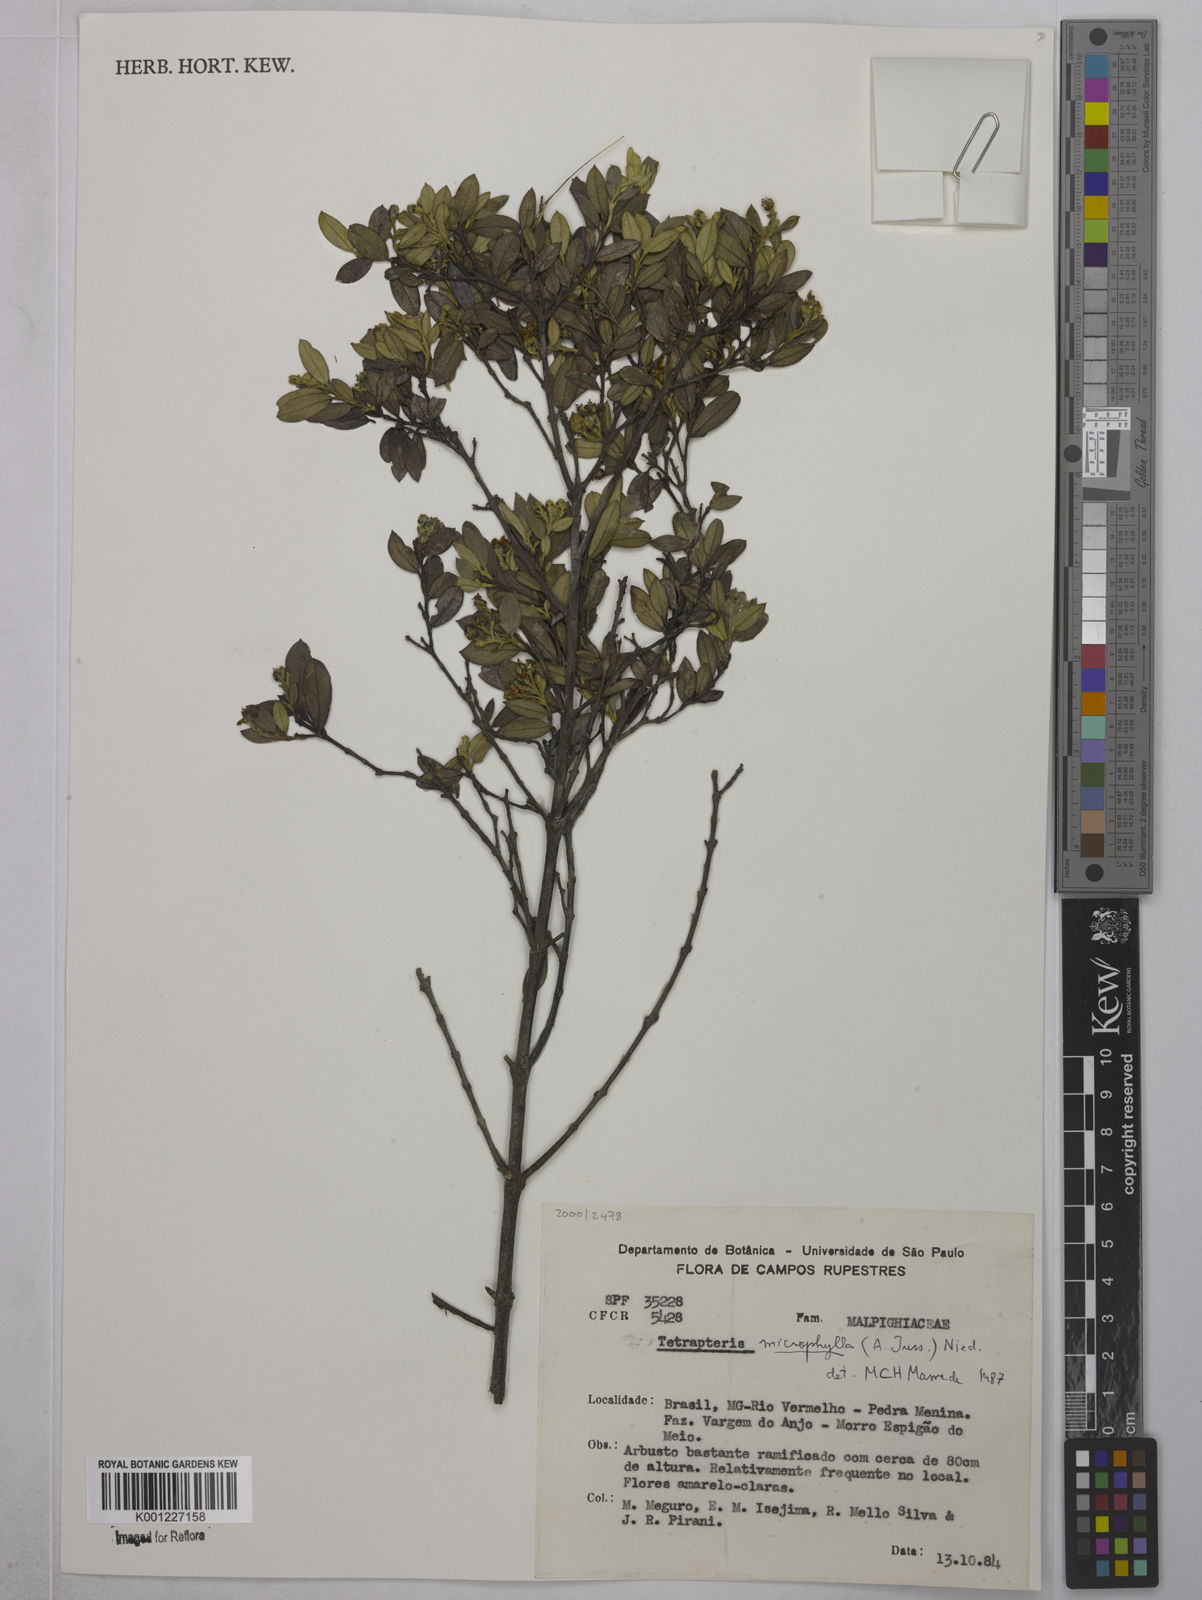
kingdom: Plantae
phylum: Tracheophyta
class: Magnoliopsida
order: Malpighiales
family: Malpighiaceae
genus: Glicophyllum
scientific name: Glicophyllum microphyllum
